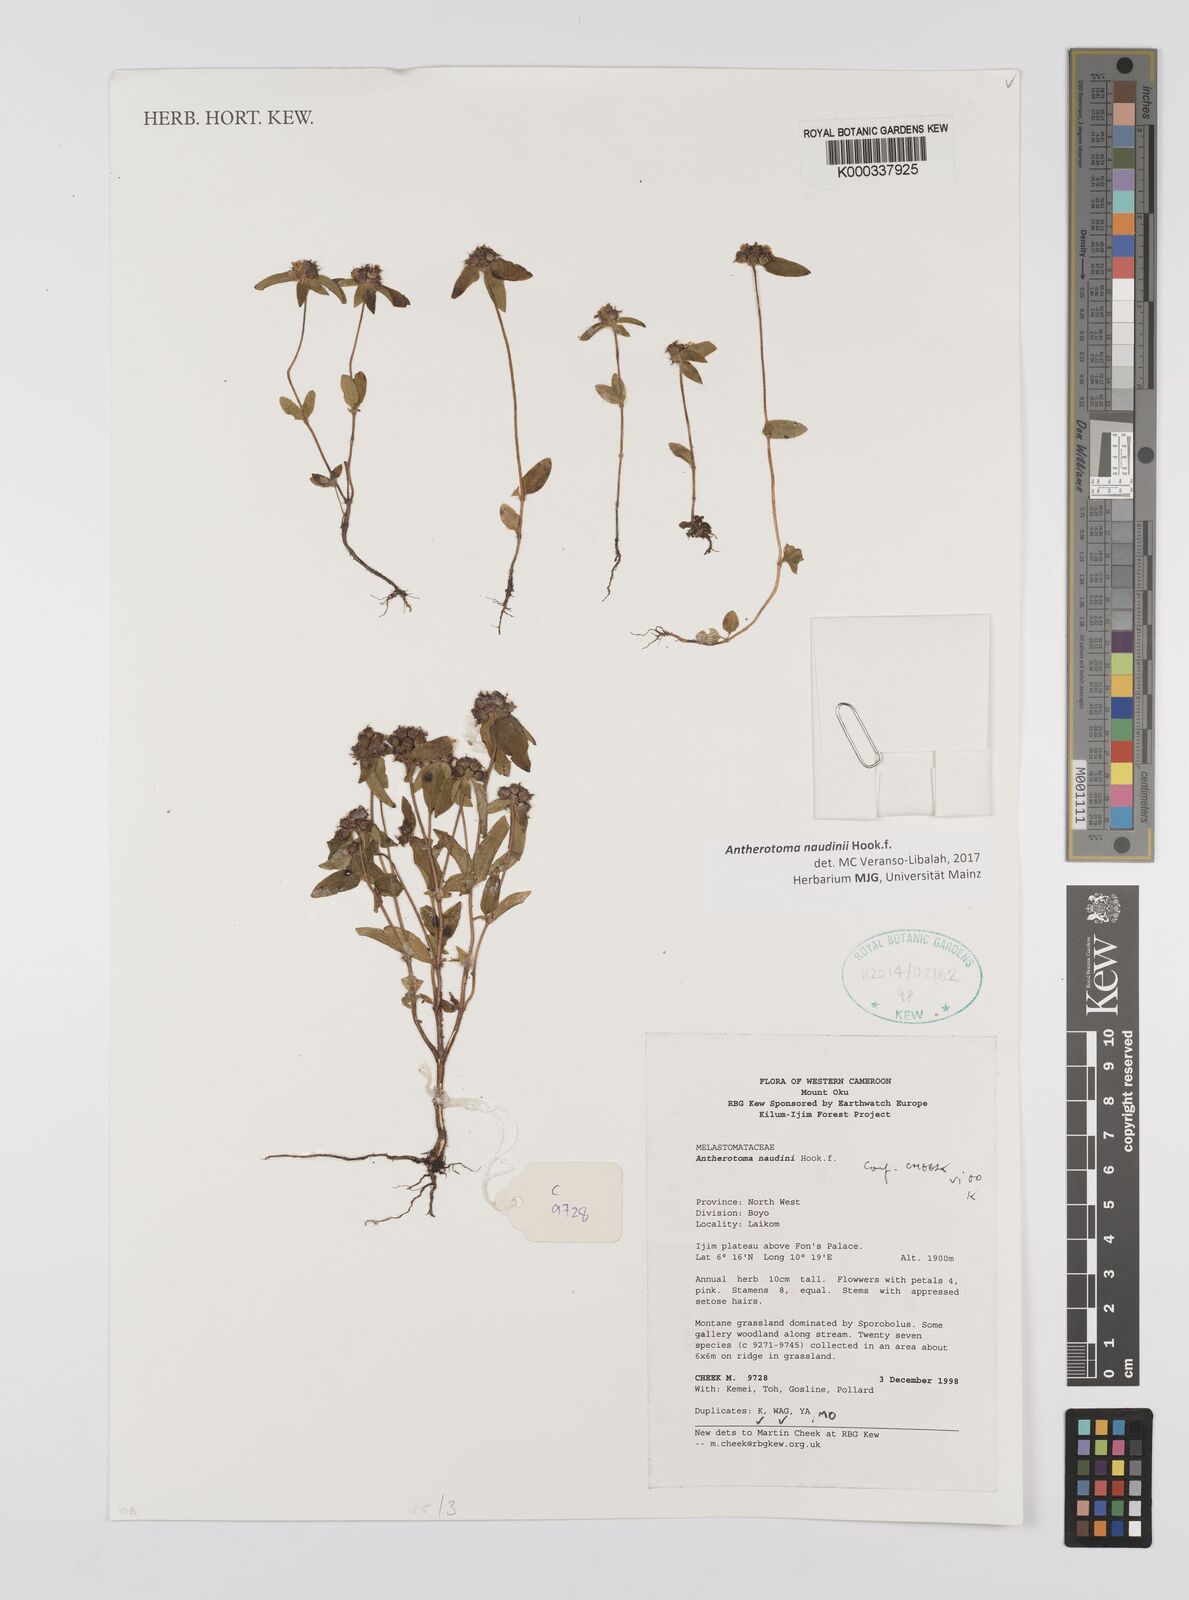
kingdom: Plantae
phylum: Tracheophyta
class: Magnoliopsida
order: Myrtales
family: Melastomataceae
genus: Antherotoma
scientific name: Antherotoma naudinii
